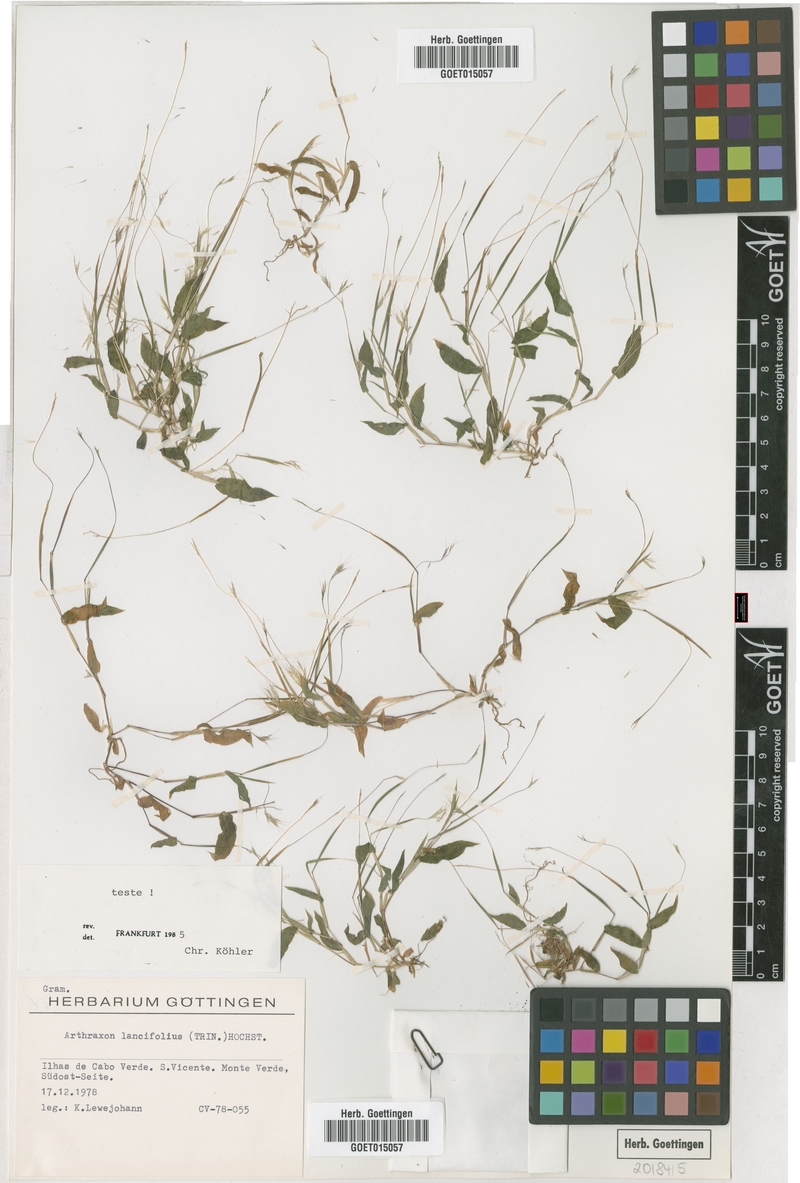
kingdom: Plantae
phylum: Tracheophyta
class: Liliopsida
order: Poales
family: Poaceae
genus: Arthraxon
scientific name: Arthraxon lancifolius
